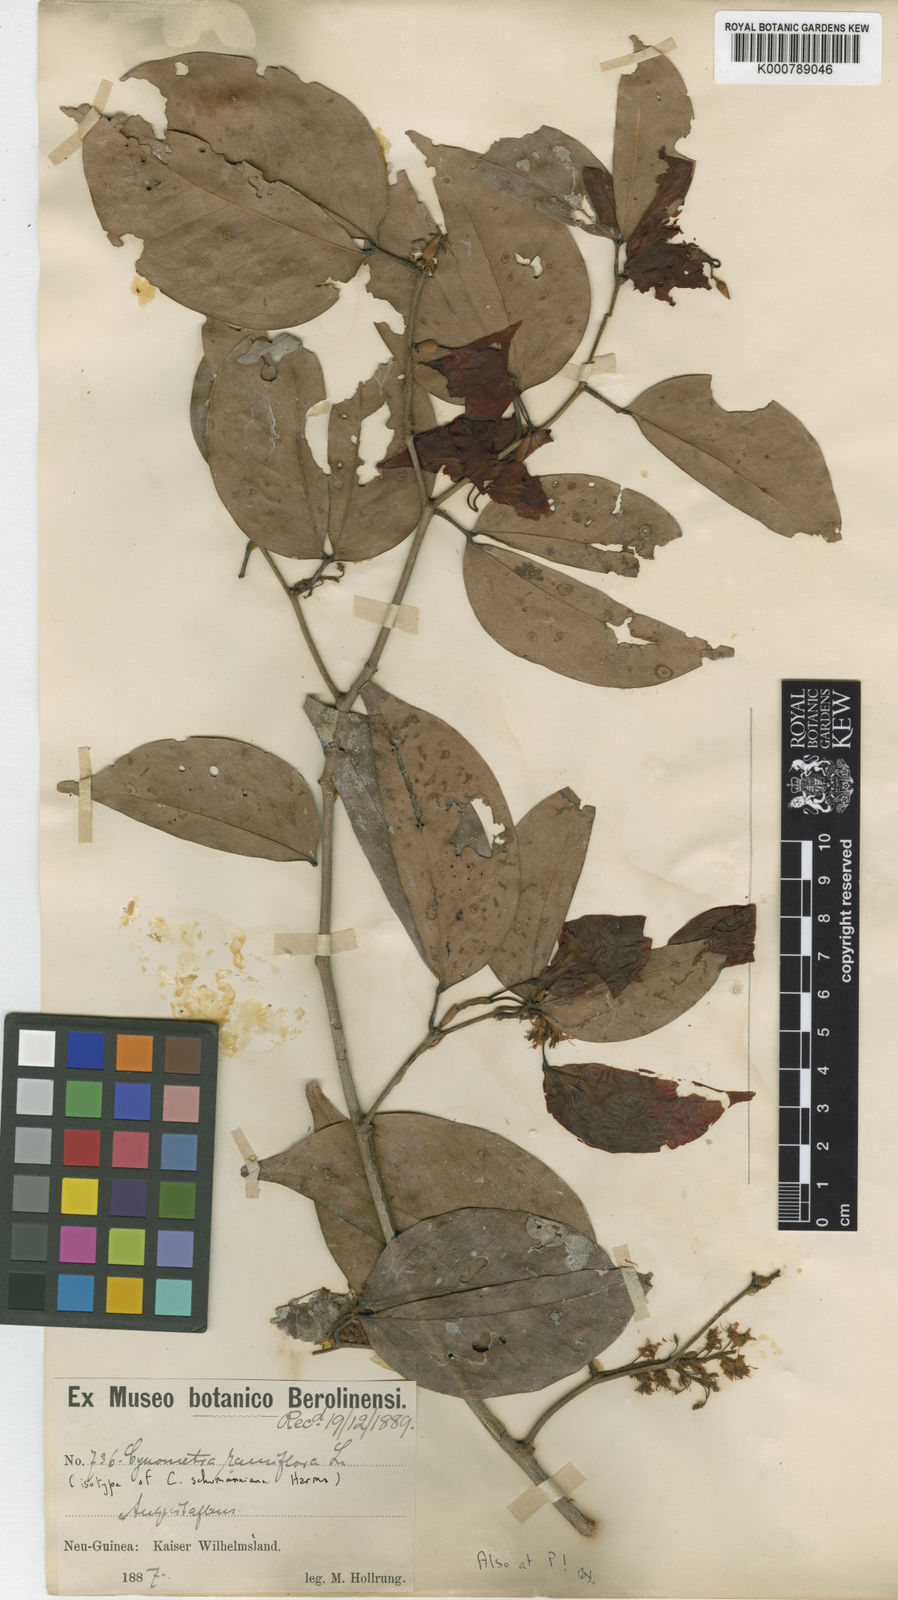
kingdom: Plantae
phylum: Tracheophyta
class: Magnoliopsida
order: Fabales
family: Fabaceae
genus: Cynometra
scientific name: Cynometra ramiflora
